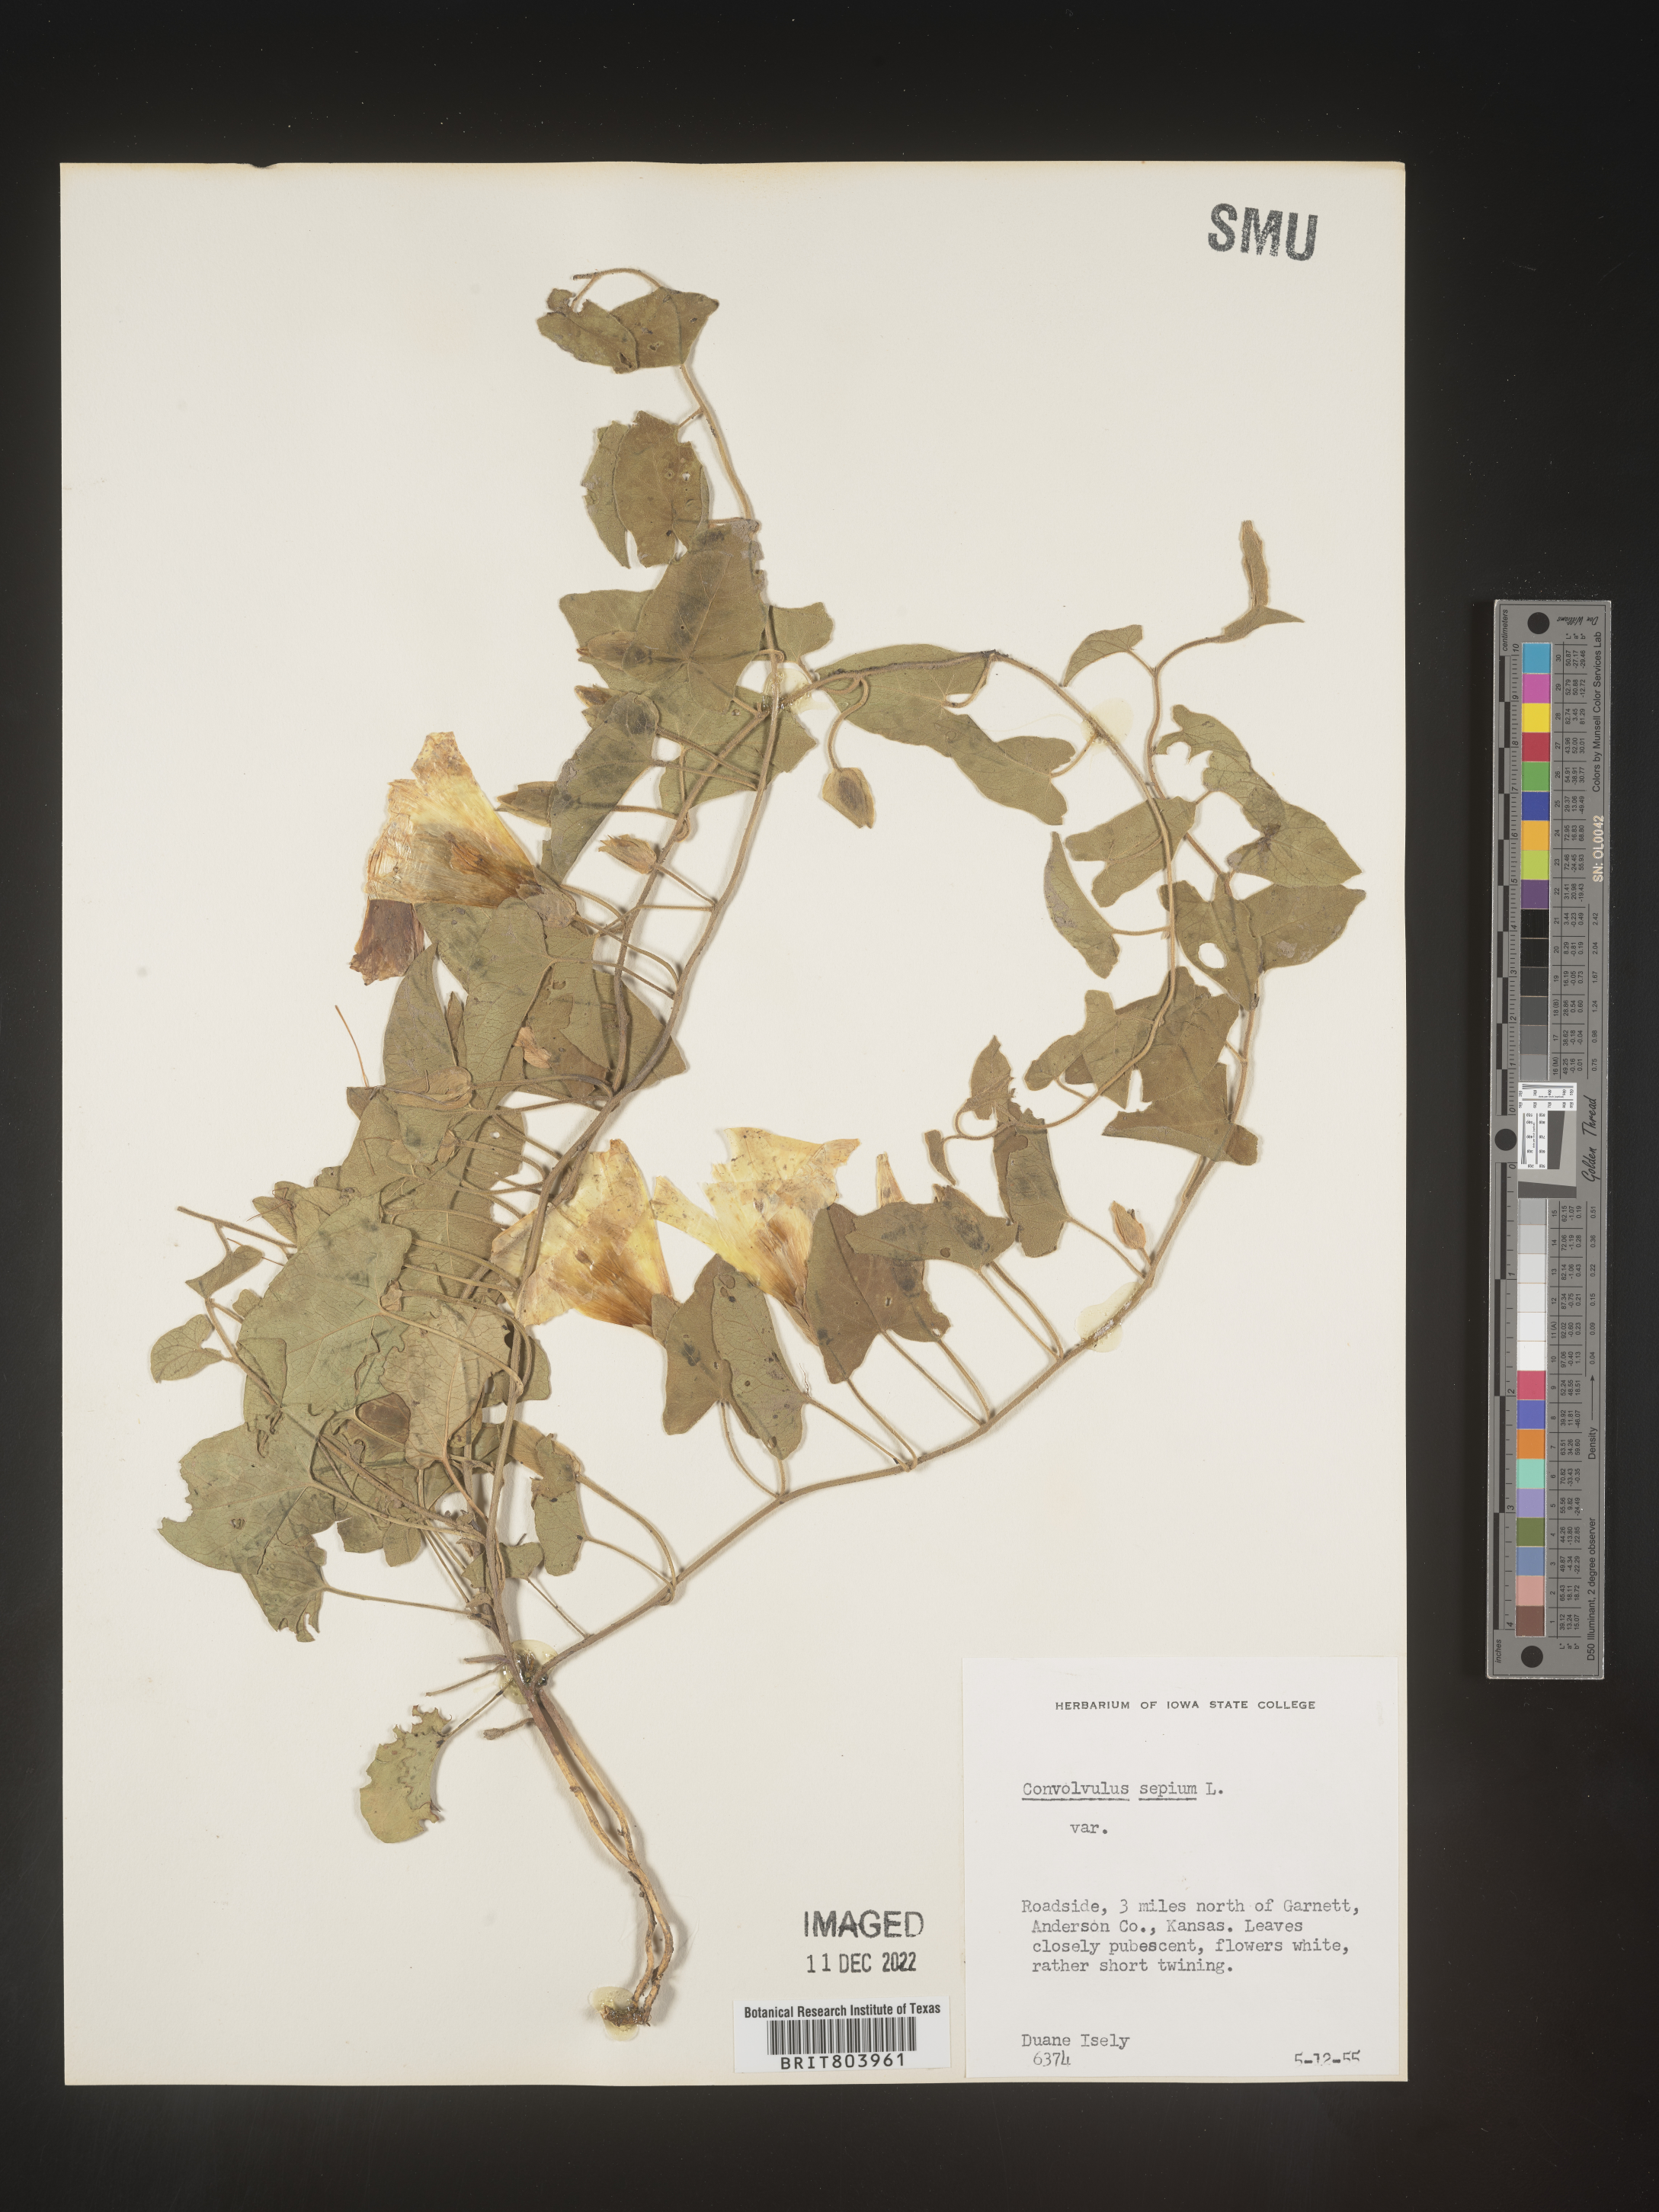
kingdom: Plantae
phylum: Tracheophyta
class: Magnoliopsida
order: Solanales
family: Convolvulaceae
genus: Calystegia
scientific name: Calystegia sepium
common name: Hedge bindweed
